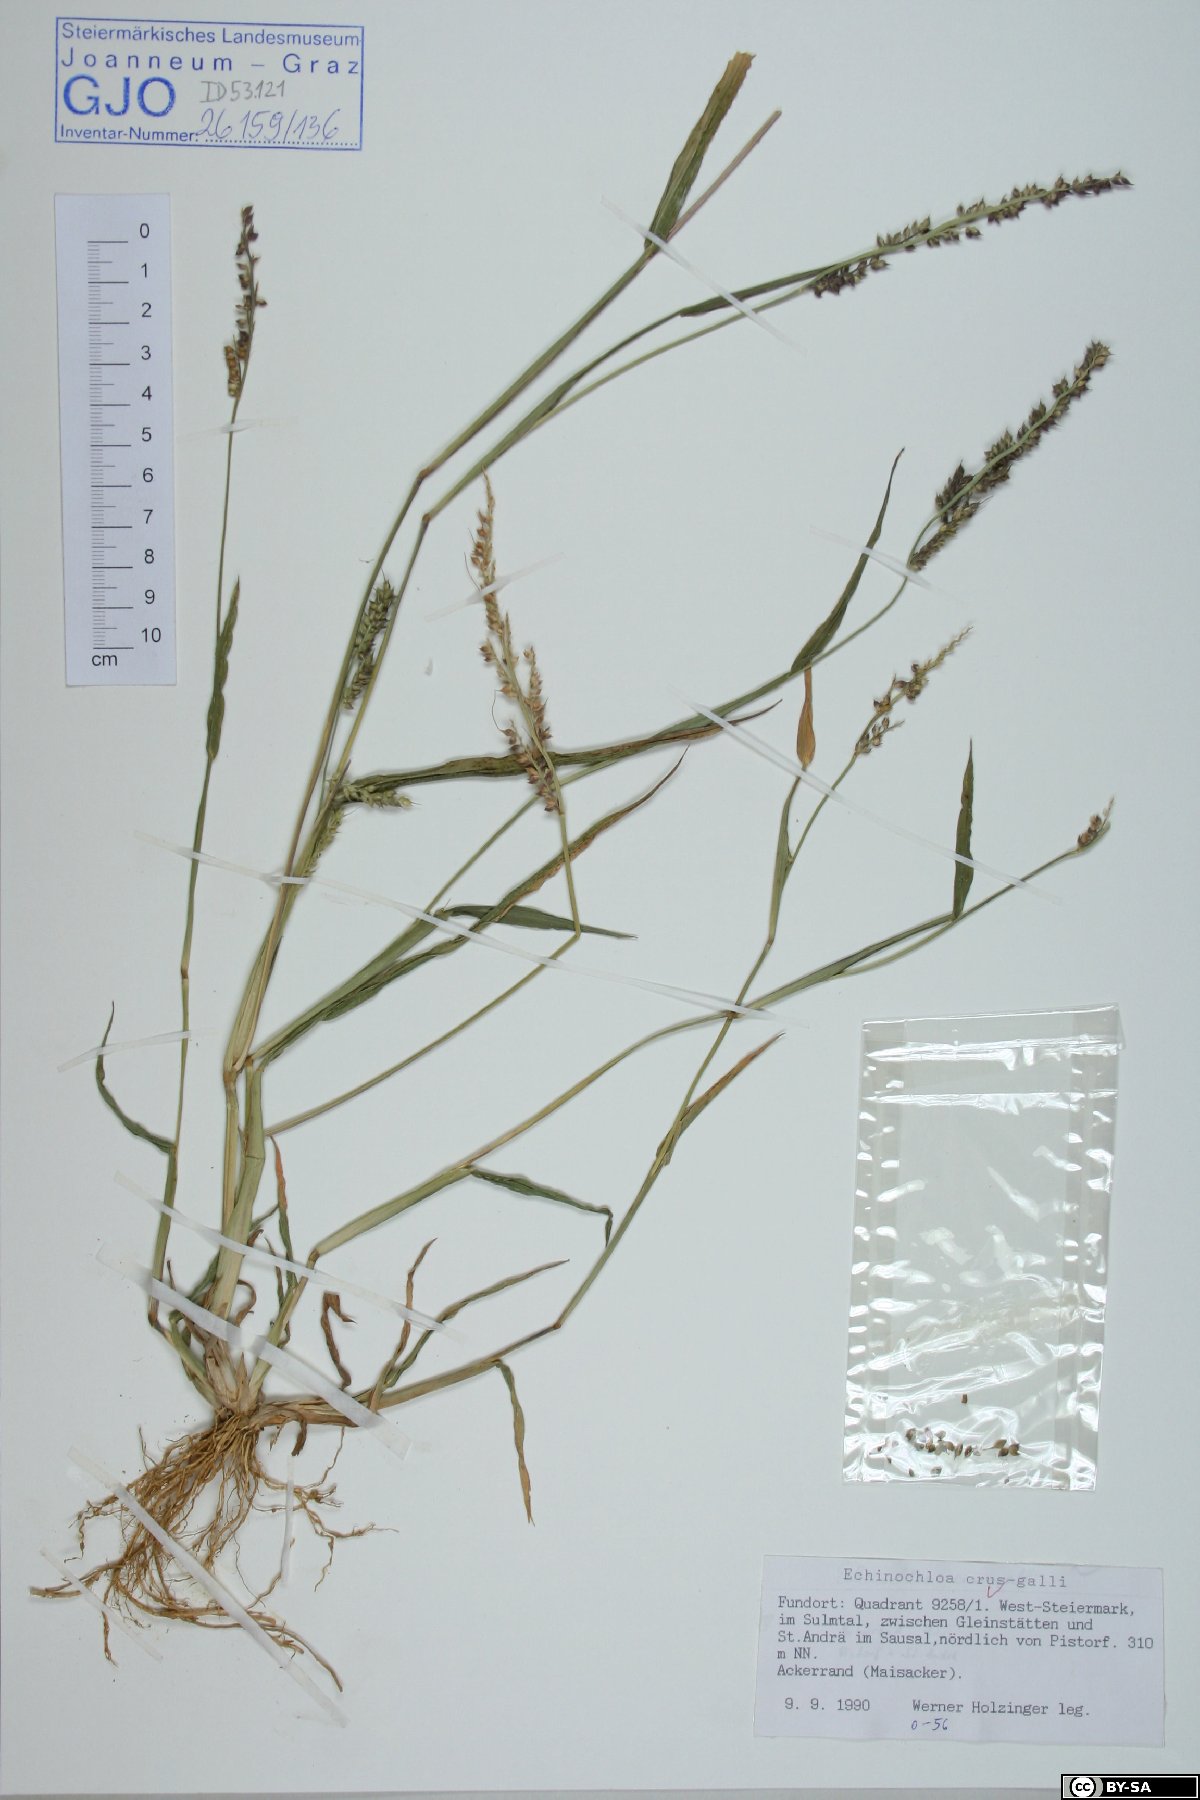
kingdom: Plantae
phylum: Tracheophyta
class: Liliopsida
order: Poales
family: Poaceae
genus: Echinochloa
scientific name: Echinochloa crus-galli
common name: Cockspur
